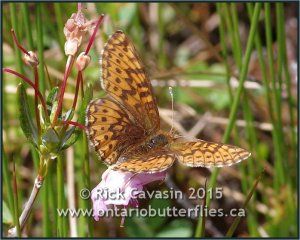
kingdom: Animalia
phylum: Arthropoda
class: Insecta
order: Lepidoptera
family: Nymphalidae
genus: Boloria
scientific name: Boloria freija
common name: Freija Fritillary
